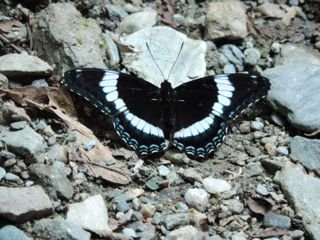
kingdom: Animalia
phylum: Arthropoda
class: Insecta
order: Lepidoptera
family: Nymphalidae
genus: Limenitis
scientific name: Limenitis arthemis
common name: Red-spotted Admiral
